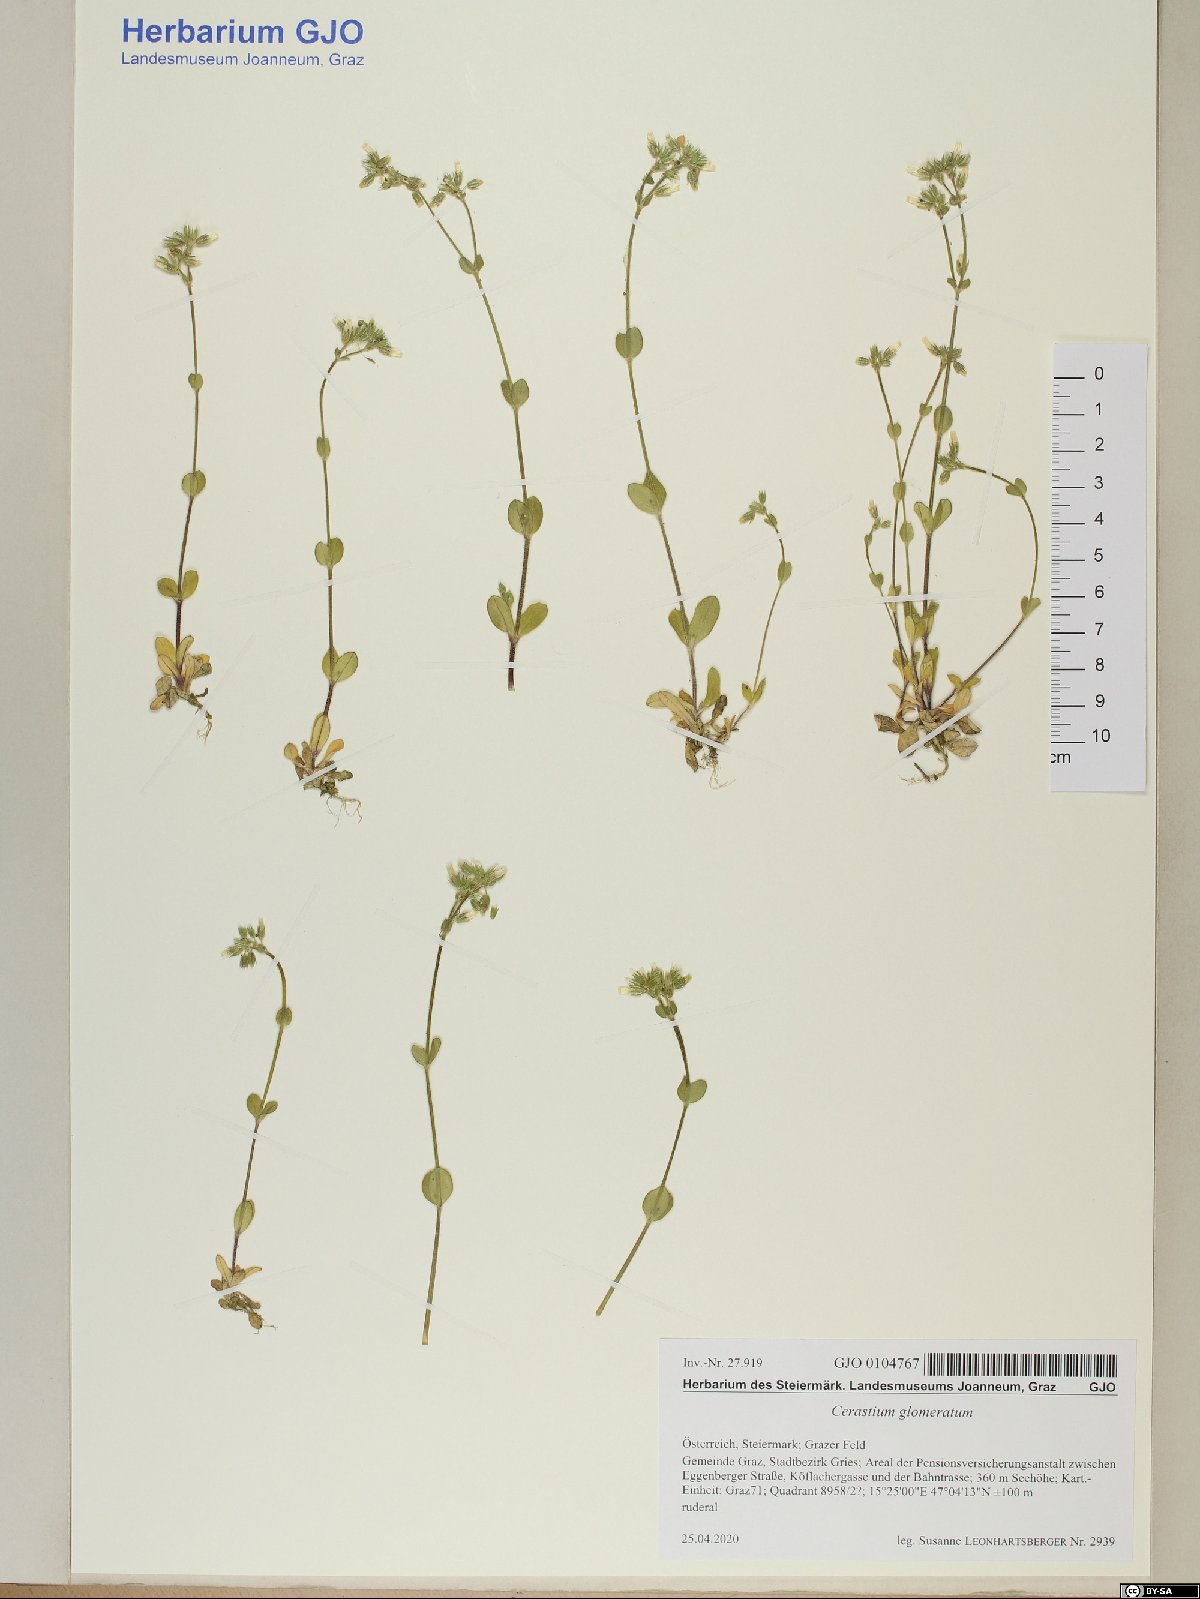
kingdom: Plantae
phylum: Tracheophyta
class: Magnoliopsida
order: Caryophyllales
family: Caryophyllaceae
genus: Cerastium
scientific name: Cerastium glomeratum
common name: Sticky chickweed
